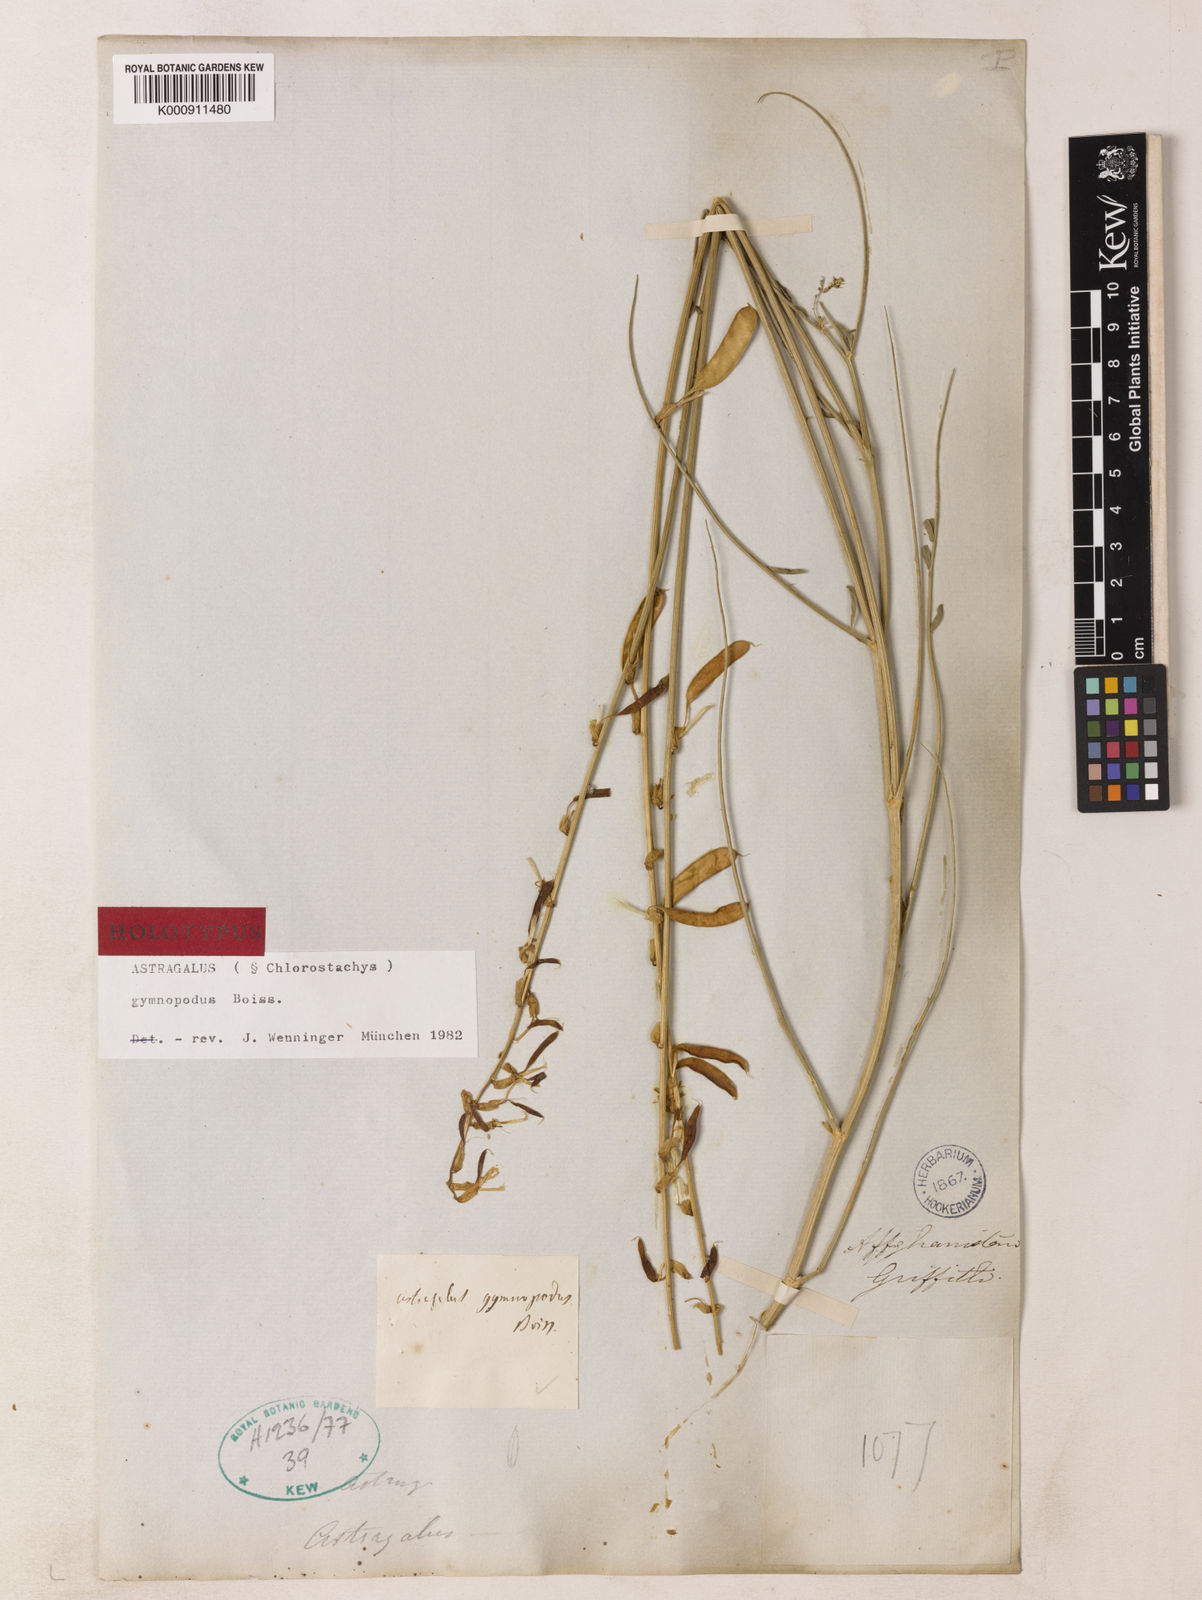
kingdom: Plantae
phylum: Tracheophyta
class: Magnoliopsida
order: Fabales
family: Fabaceae
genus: Astragalus
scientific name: Astragalus gymnopodus
